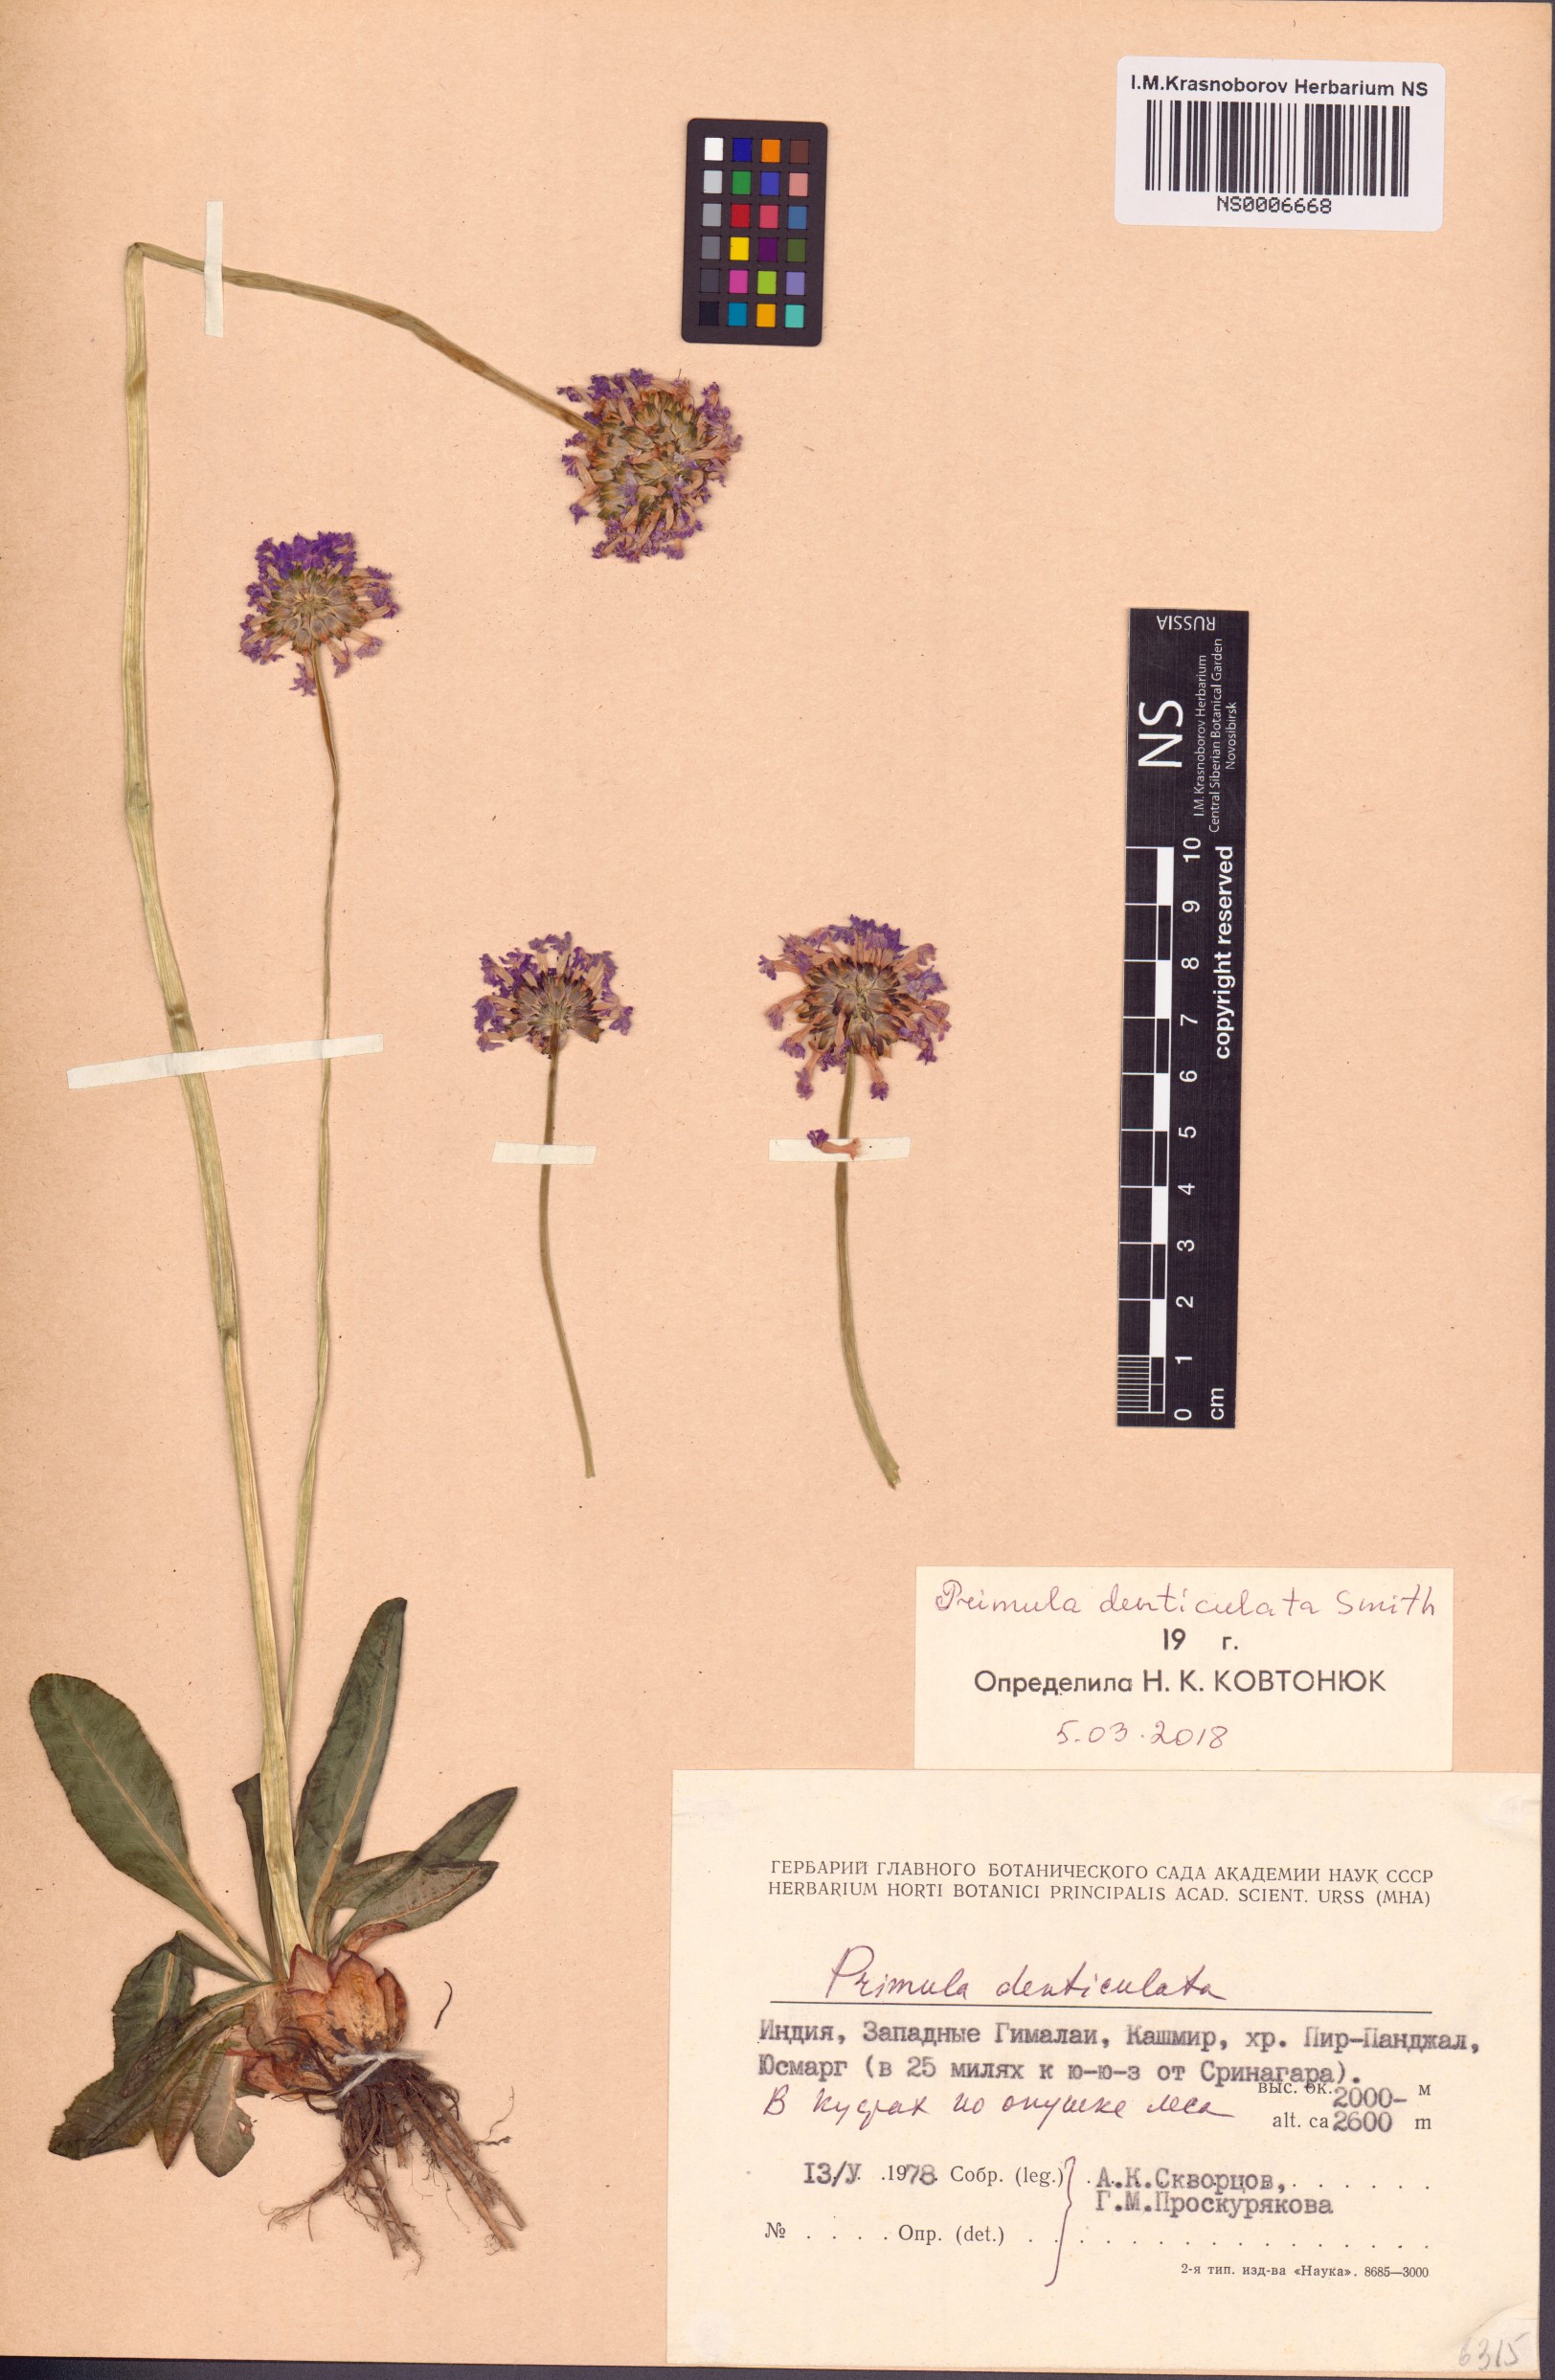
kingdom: Plantae
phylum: Tracheophyta
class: Magnoliopsida
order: Ericales
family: Primulaceae
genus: Primula
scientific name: Primula denticulata
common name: Drumstick primula
